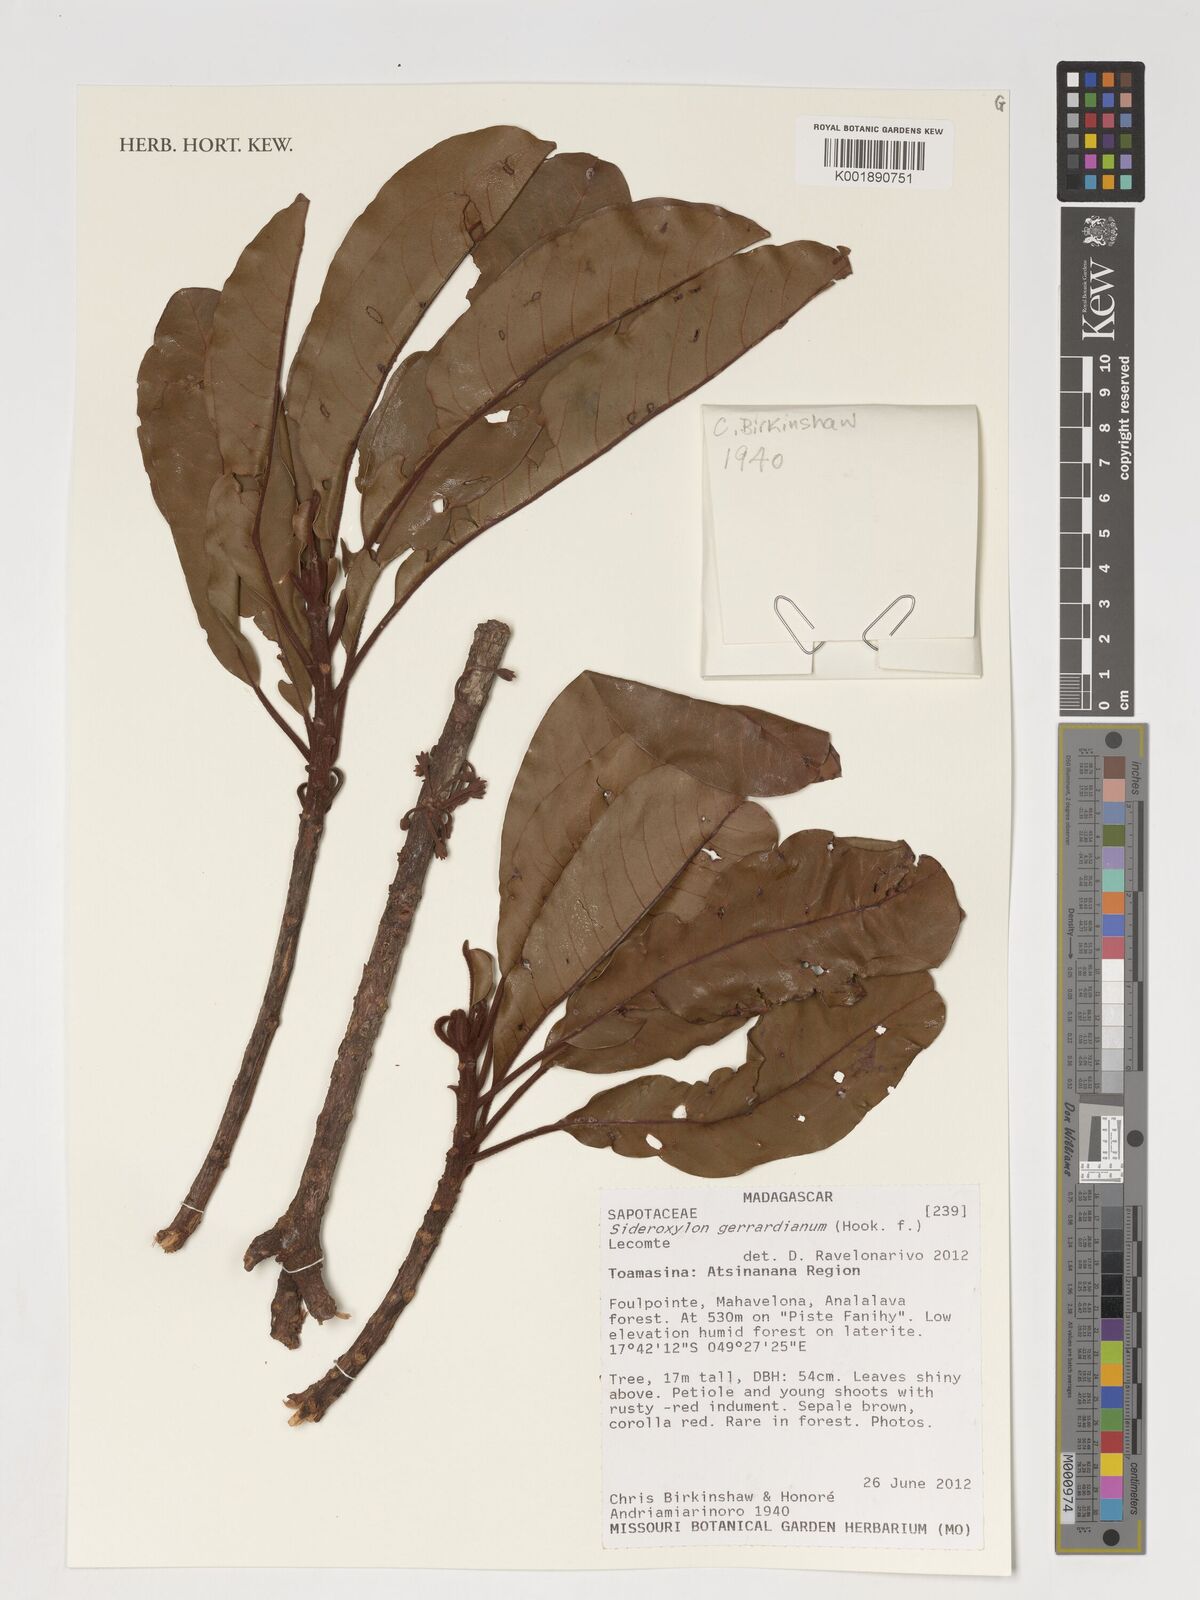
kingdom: Plantae
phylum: Tracheophyta
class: Magnoliopsida
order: Ericales
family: Sapotaceae
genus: Sideroxylon
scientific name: Sideroxylon gerrardianum
